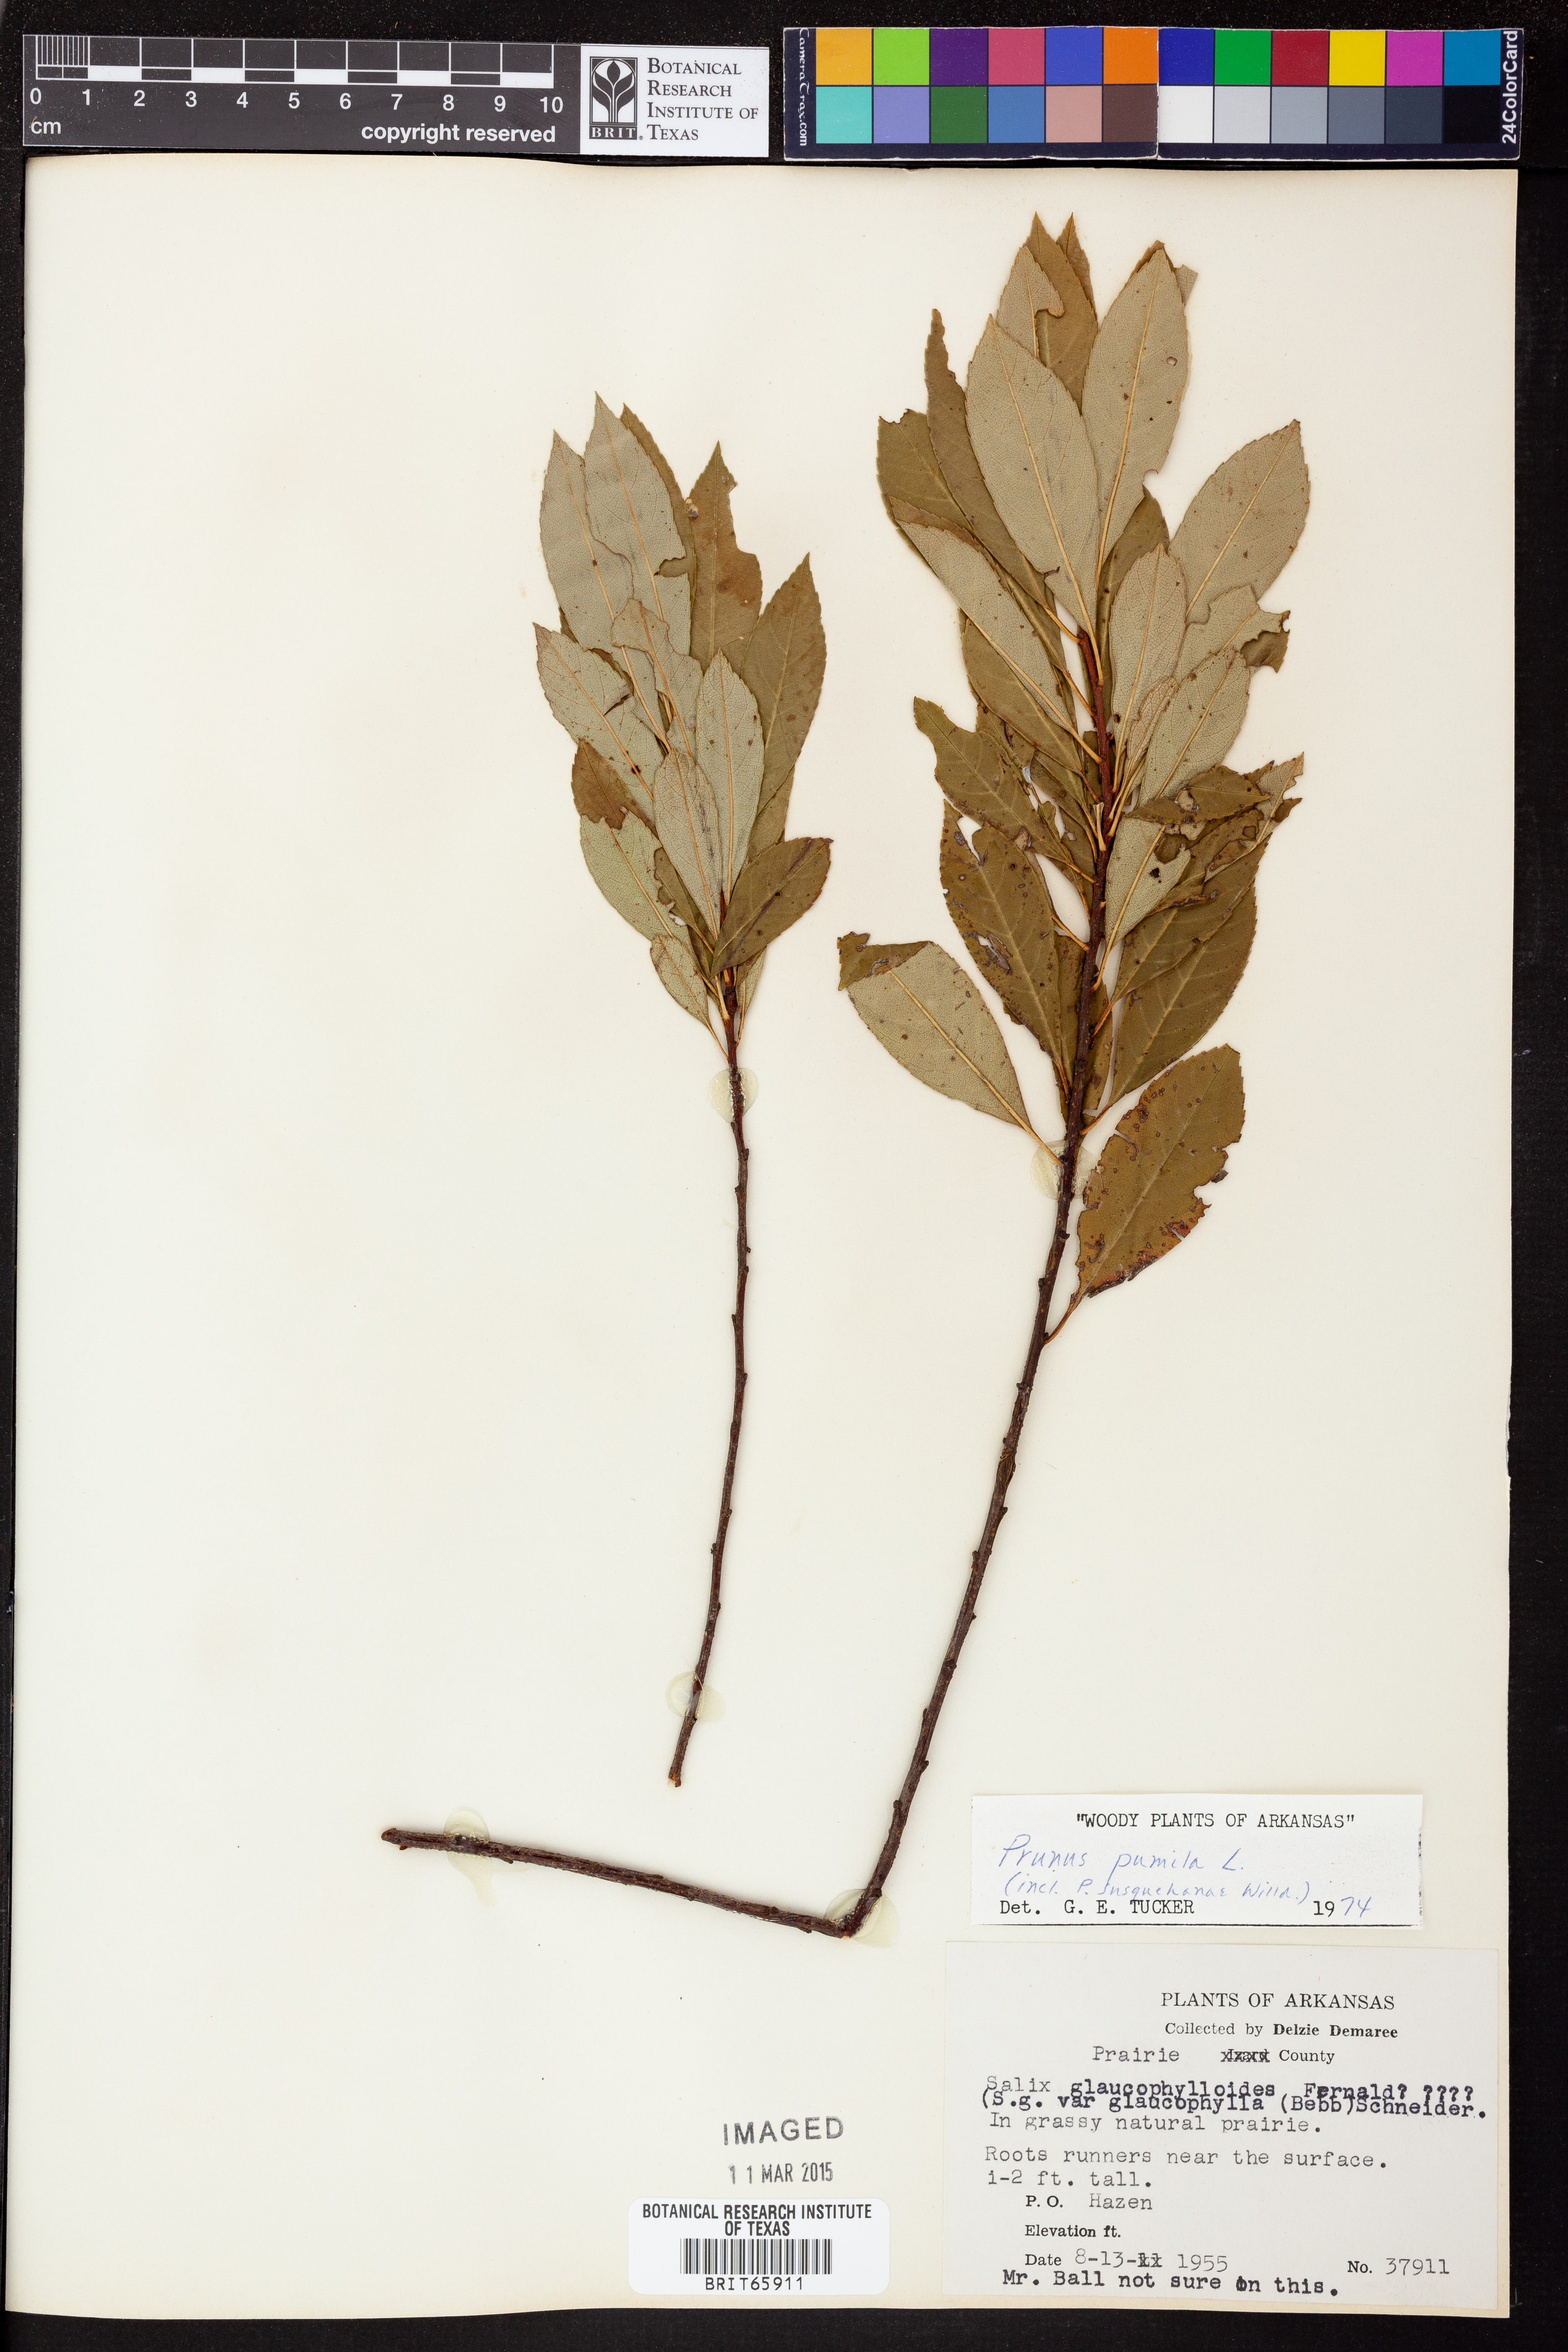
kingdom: Plantae
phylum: Tracheophyta
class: Magnoliopsida
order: Rosales
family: Rosaceae
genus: Prunus
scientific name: Prunus pumila
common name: Dwarf cherry
